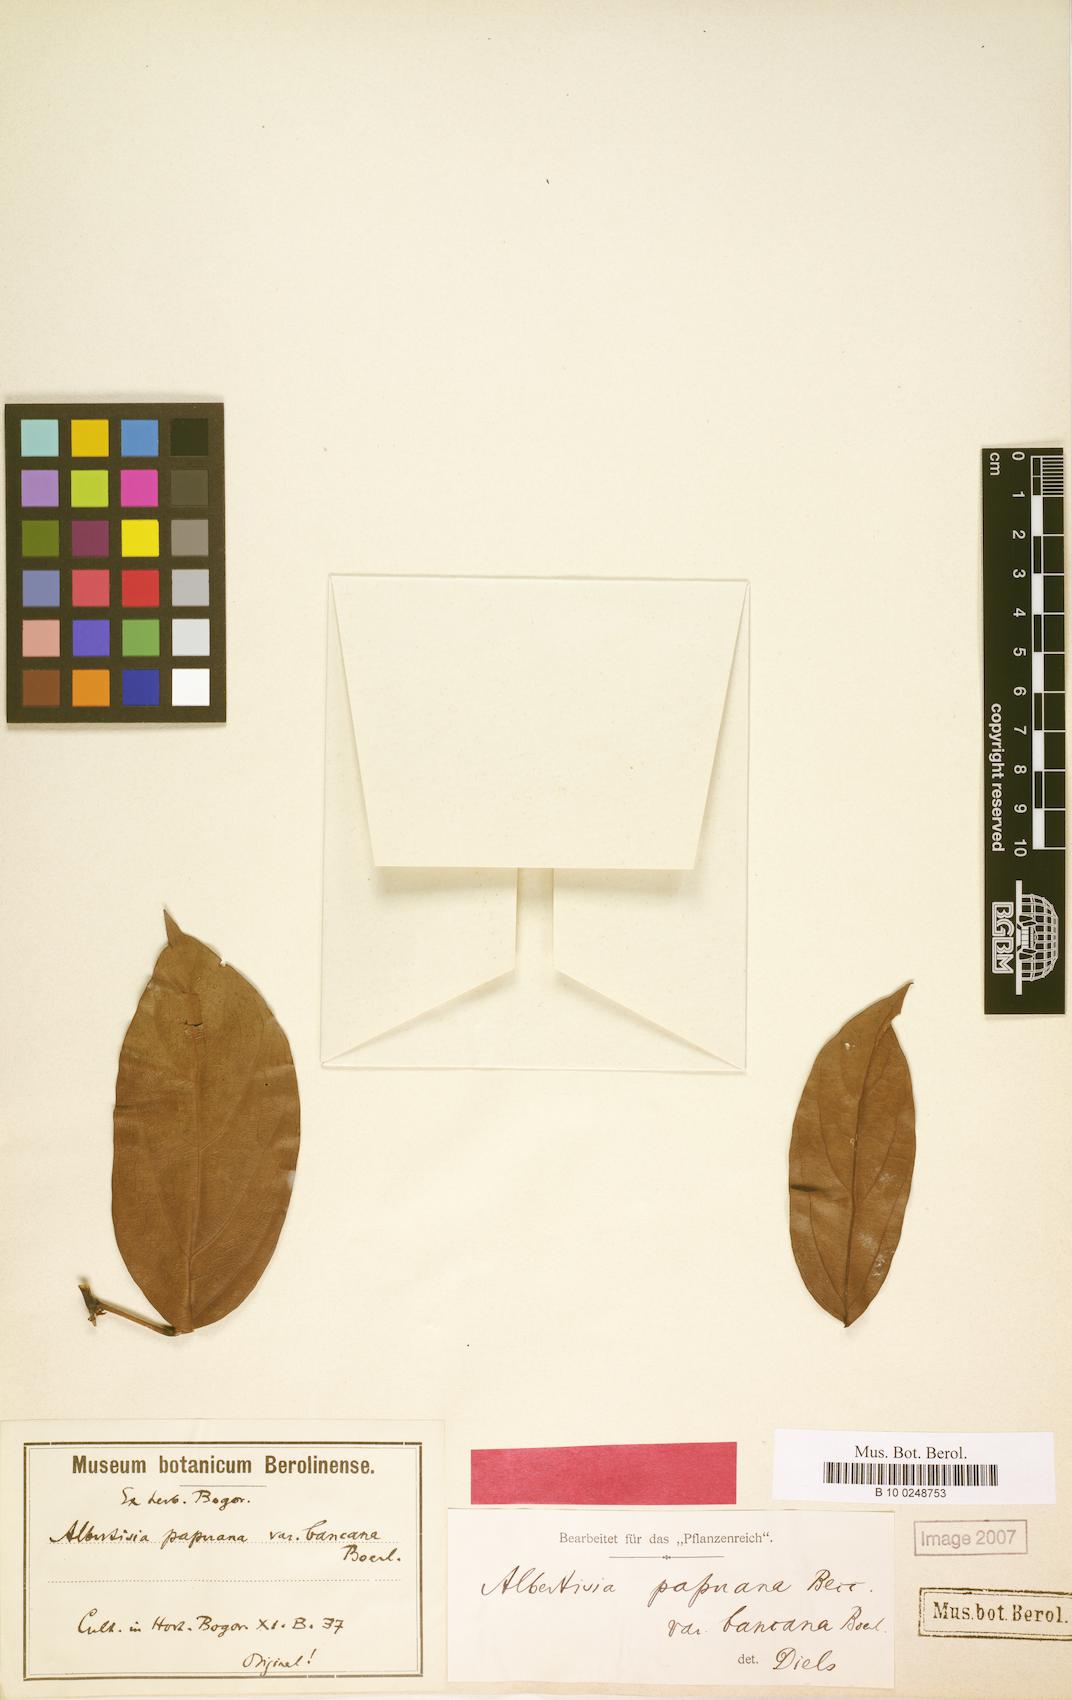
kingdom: Plantae
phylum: Tracheophyta
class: Magnoliopsida
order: Ranunculales
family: Menispermaceae
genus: Albertisia
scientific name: Albertisia papuana
